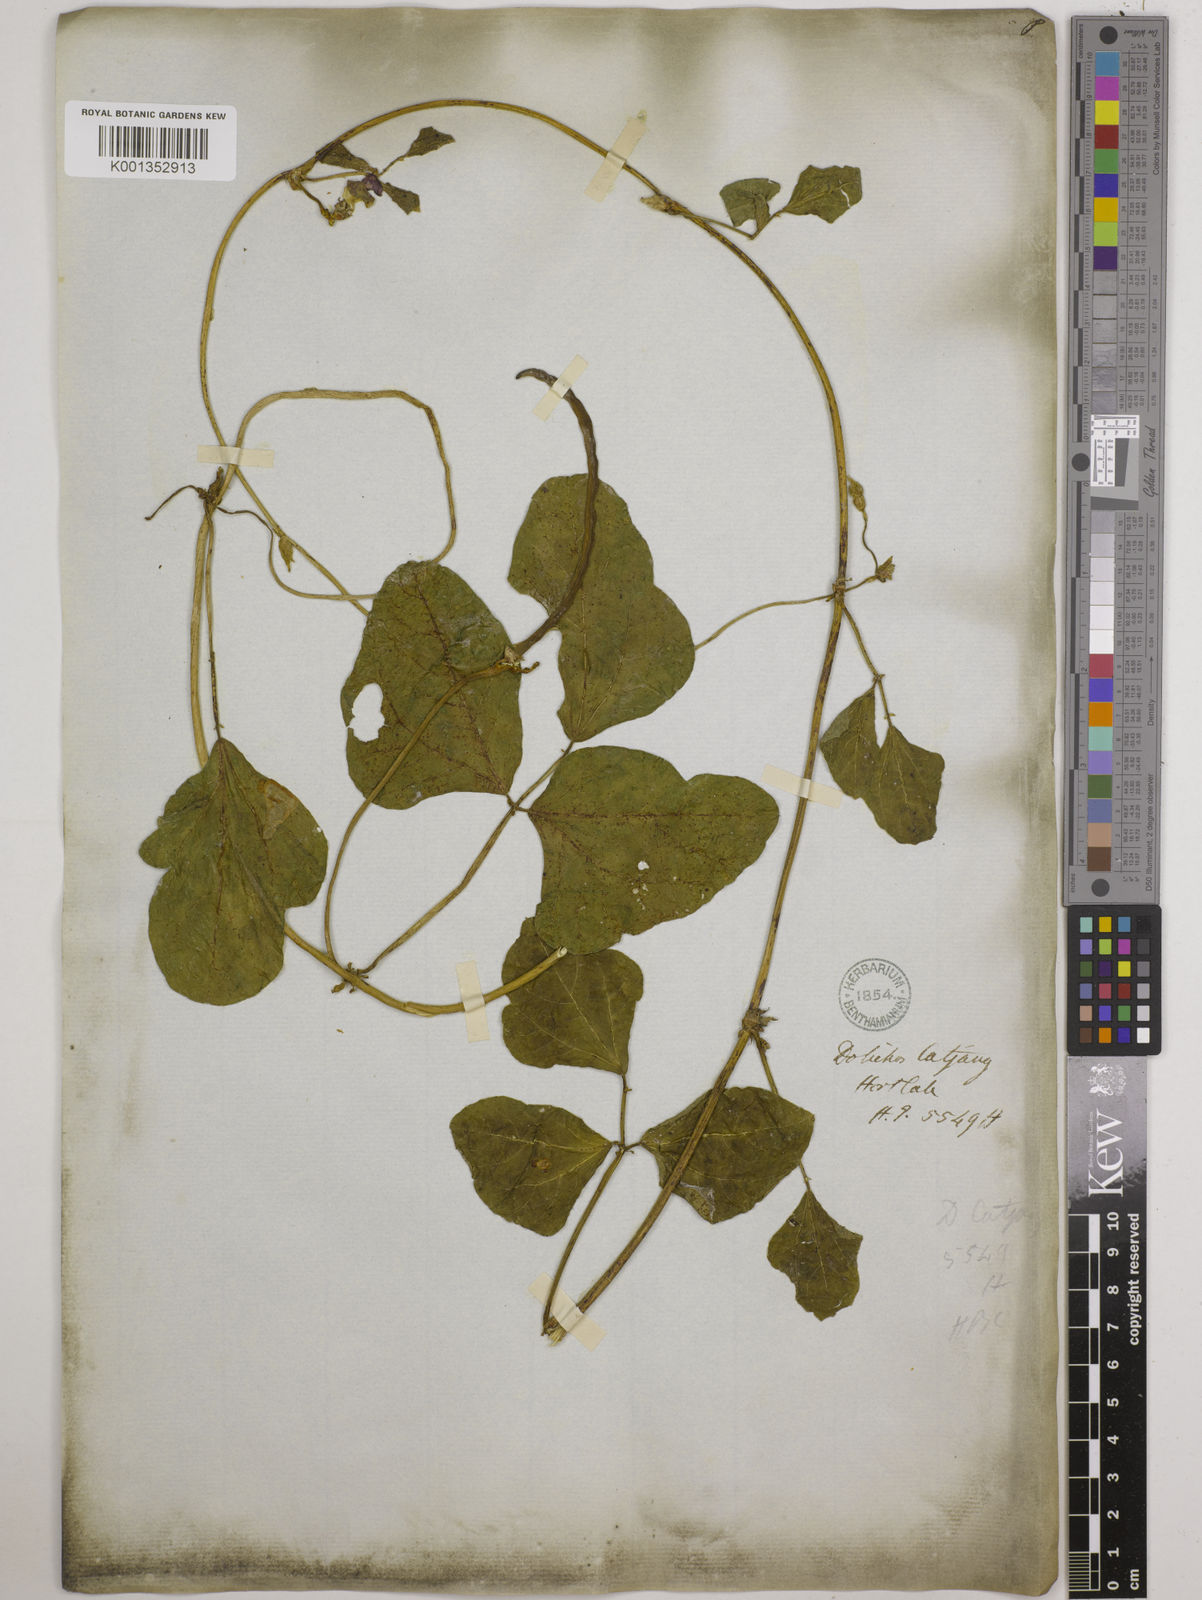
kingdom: Plantae
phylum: Tracheophyta
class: Magnoliopsida
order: Fabales
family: Fabaceae
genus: Lablab
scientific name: Lablab purpureus
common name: Lablab-bean
